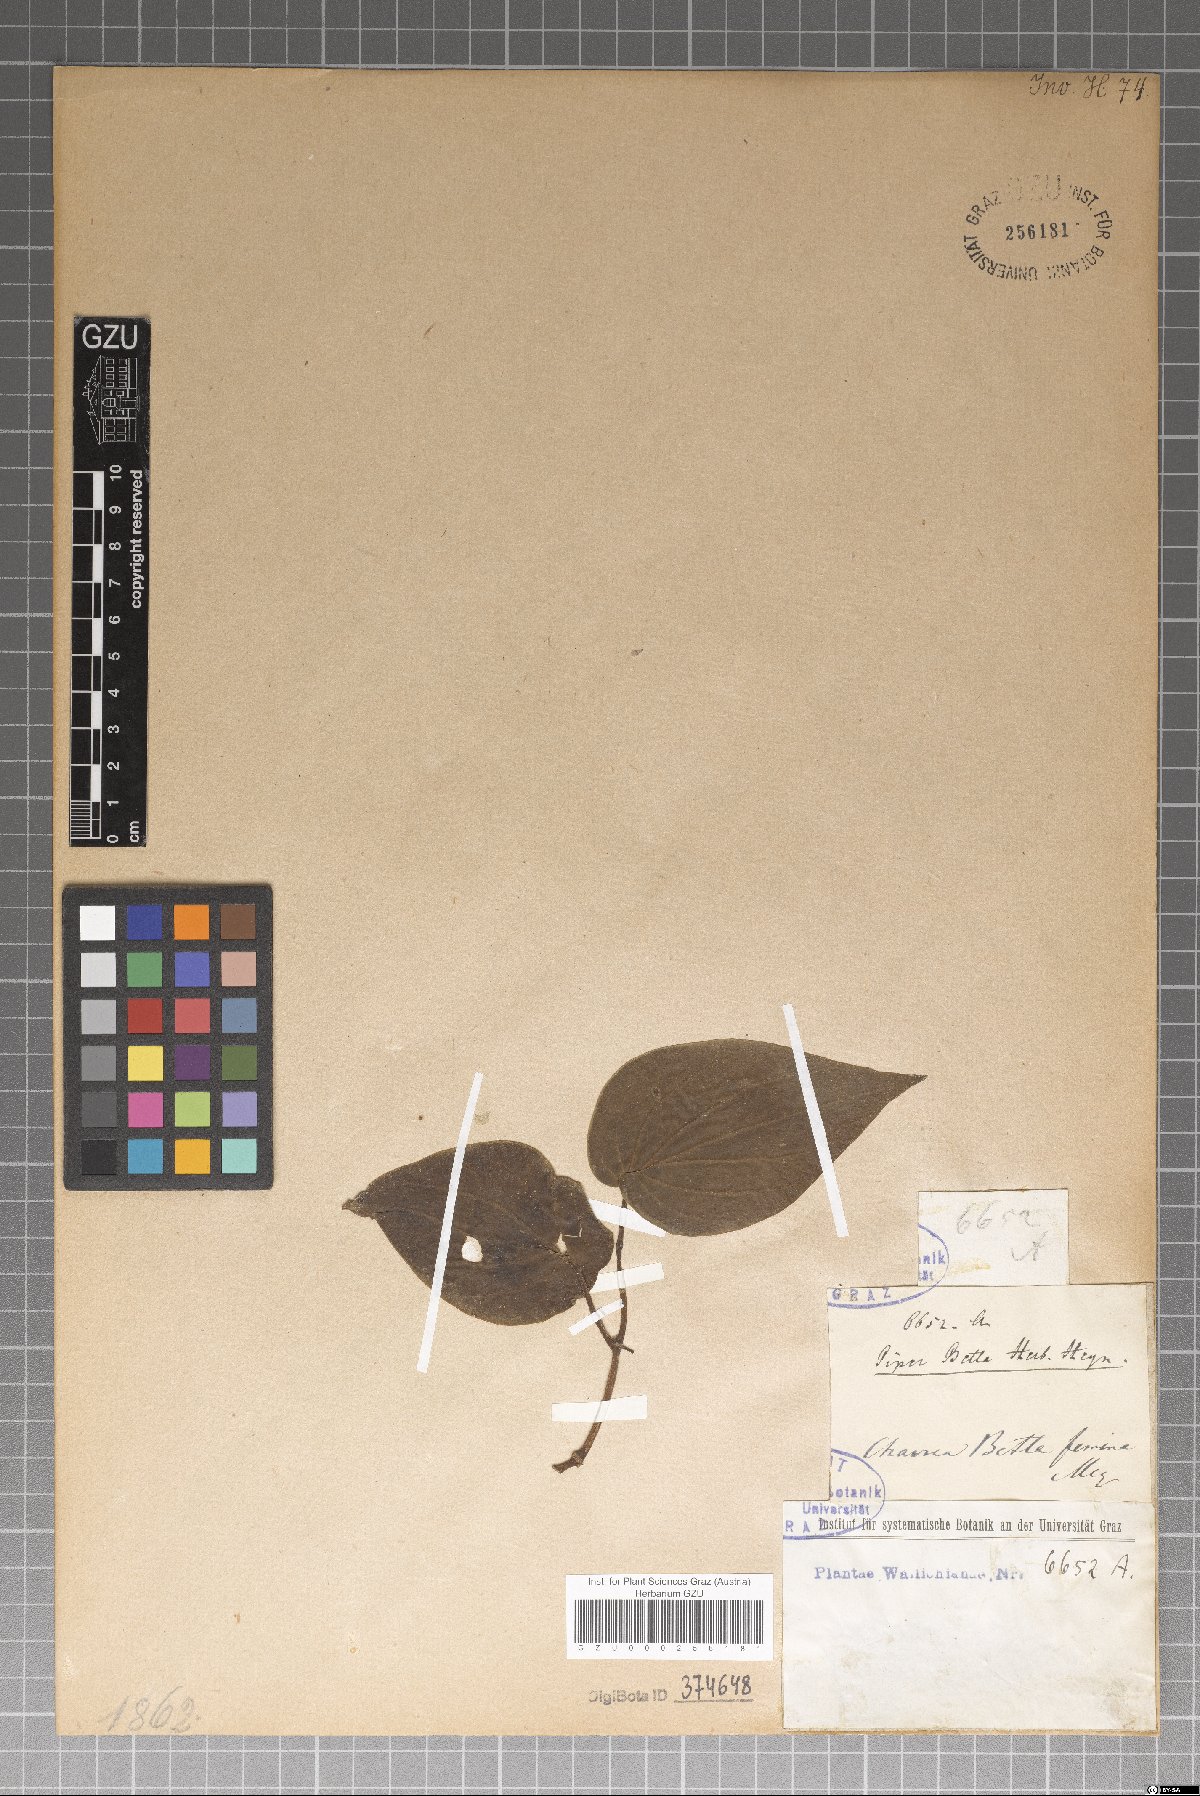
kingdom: Plantae
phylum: Tracheophyta
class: Magnoliopsida
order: Piperales
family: Piperaceae
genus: Piper
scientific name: Piper betle
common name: Betel pepper
